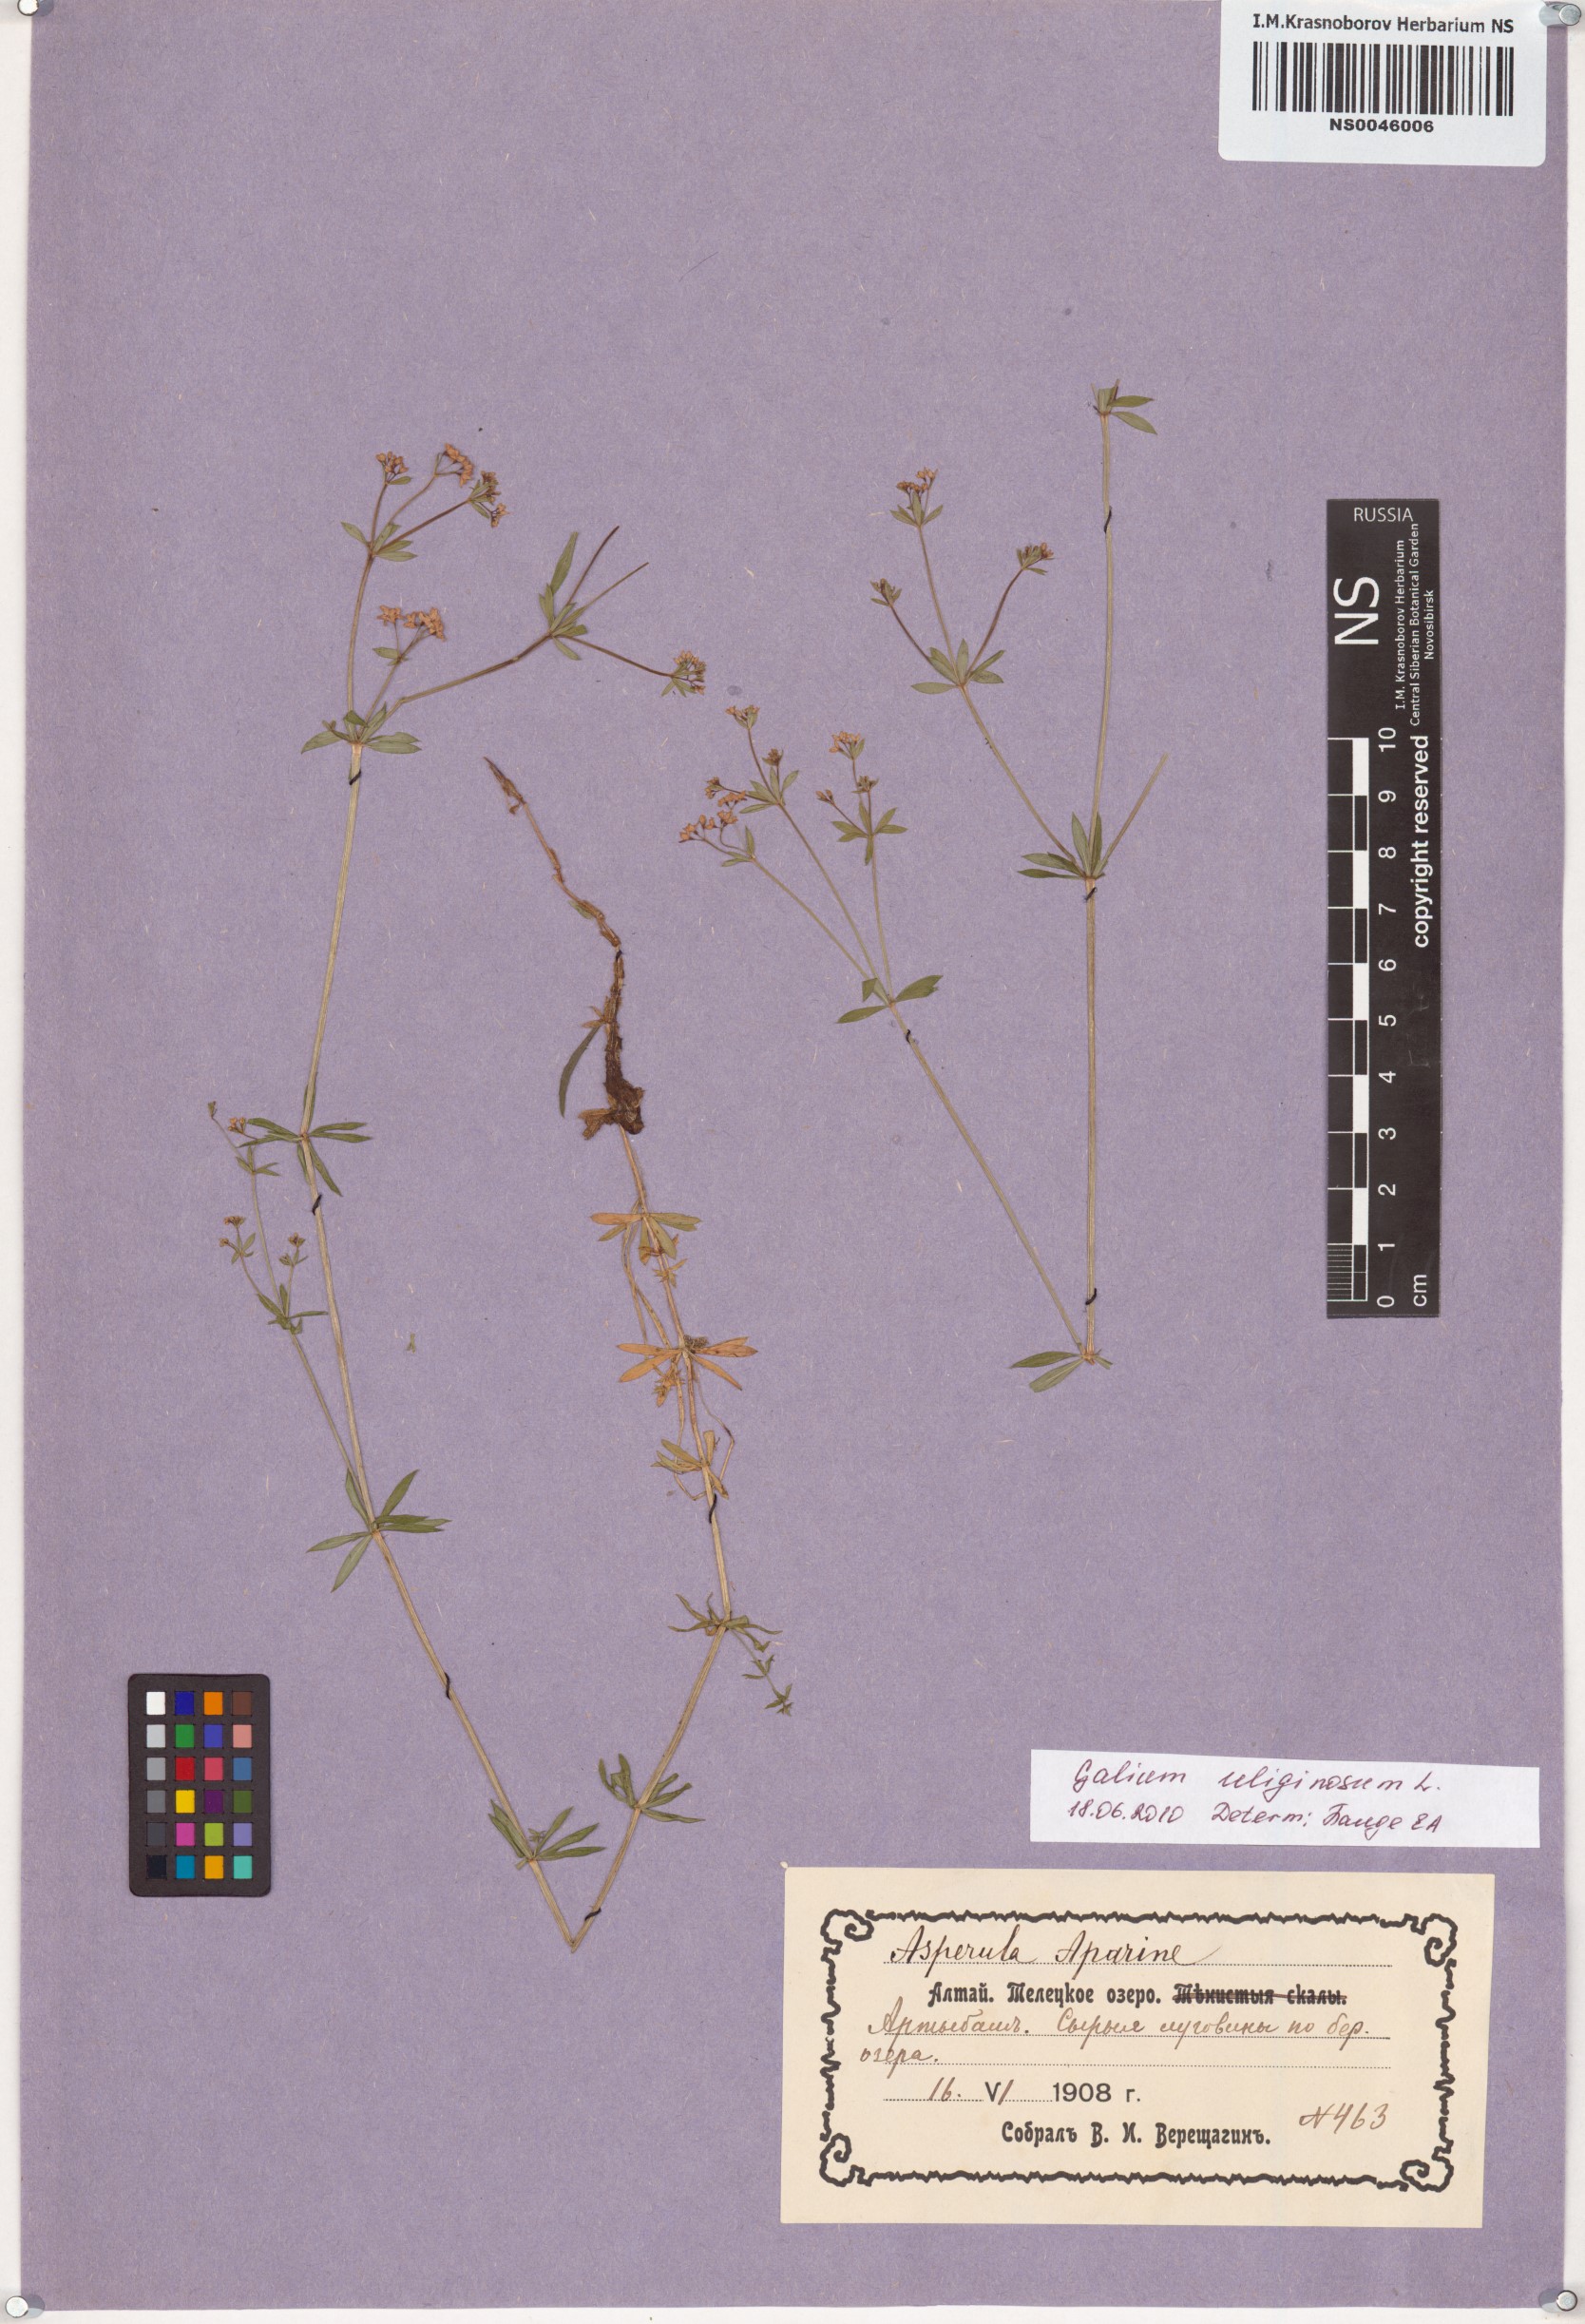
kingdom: Plantae
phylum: Tracheophyta
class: Magnoliopsida
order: Gentianales
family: Rubiaceae
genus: Galium
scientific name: Galium uliginosum
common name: Fen bedstraw
